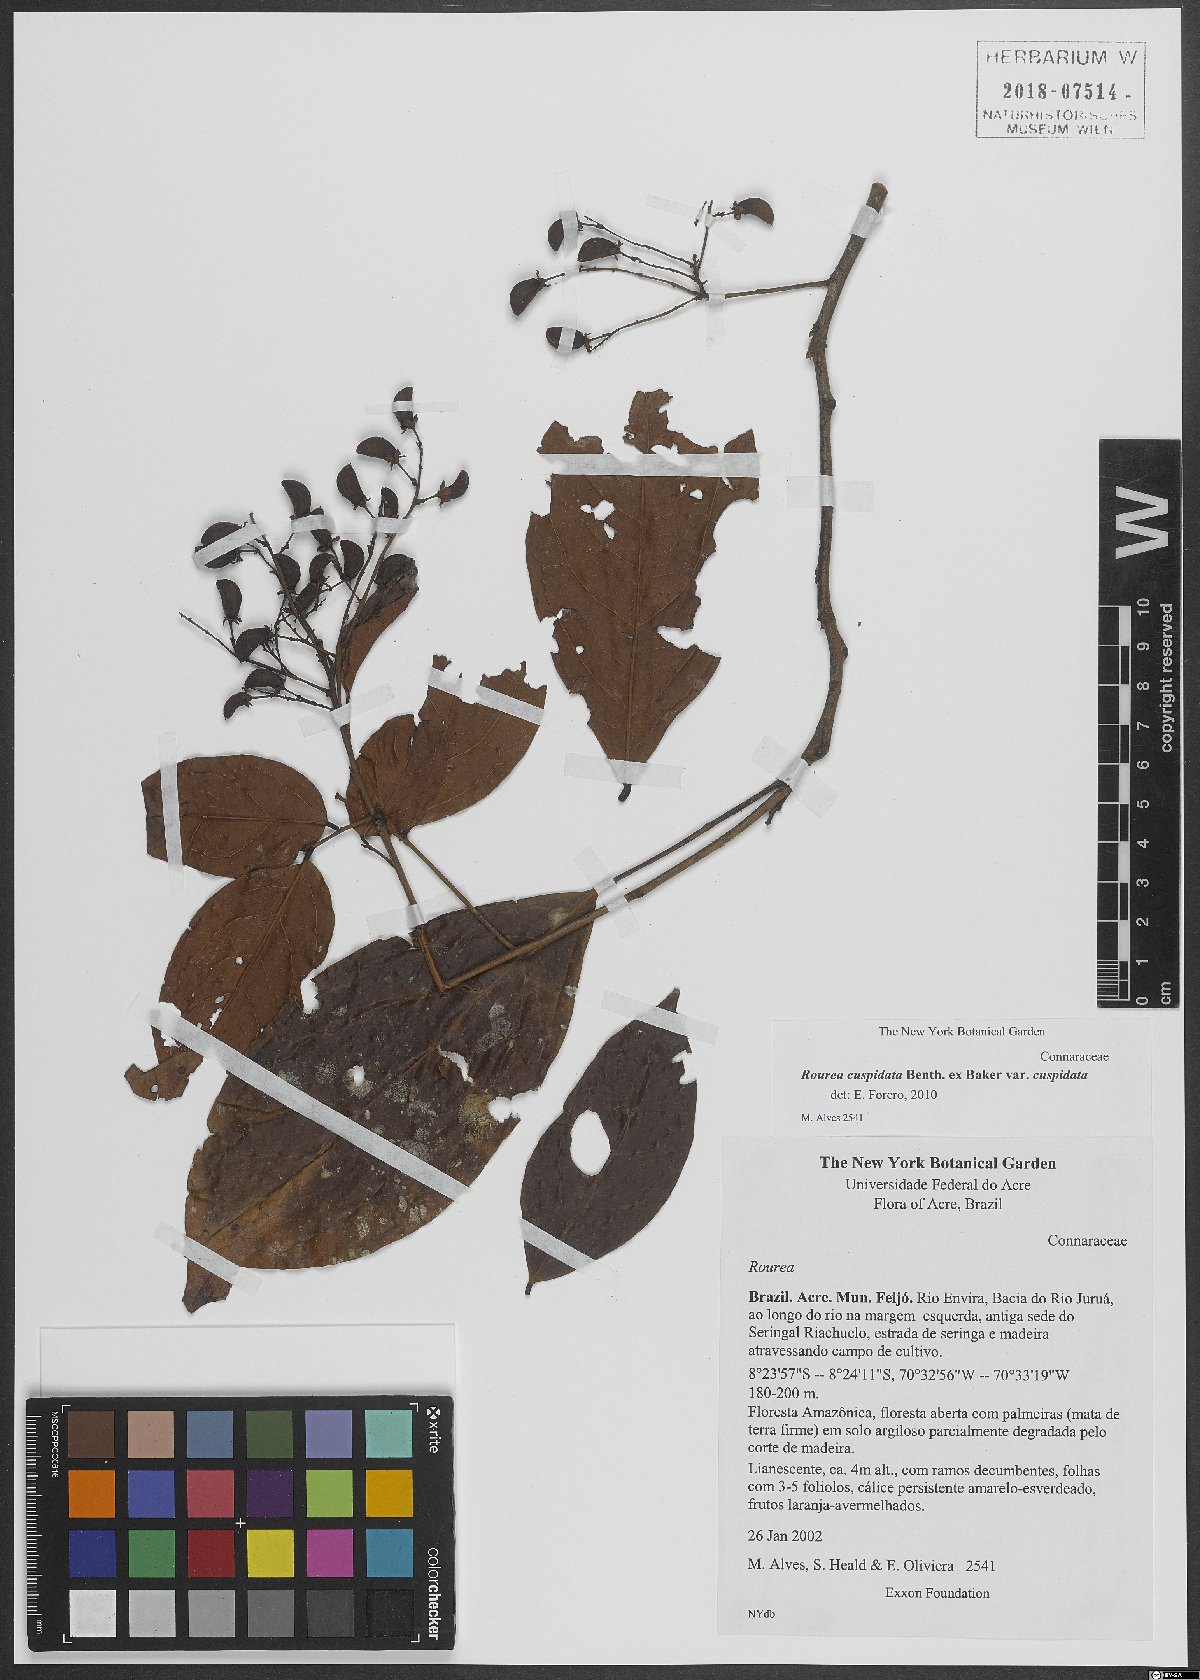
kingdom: Plantae
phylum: Tracheophyta
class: Magnoliopsida
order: Oxalidales
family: Connaraceae
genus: Rourea
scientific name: Rourea cuspidata
